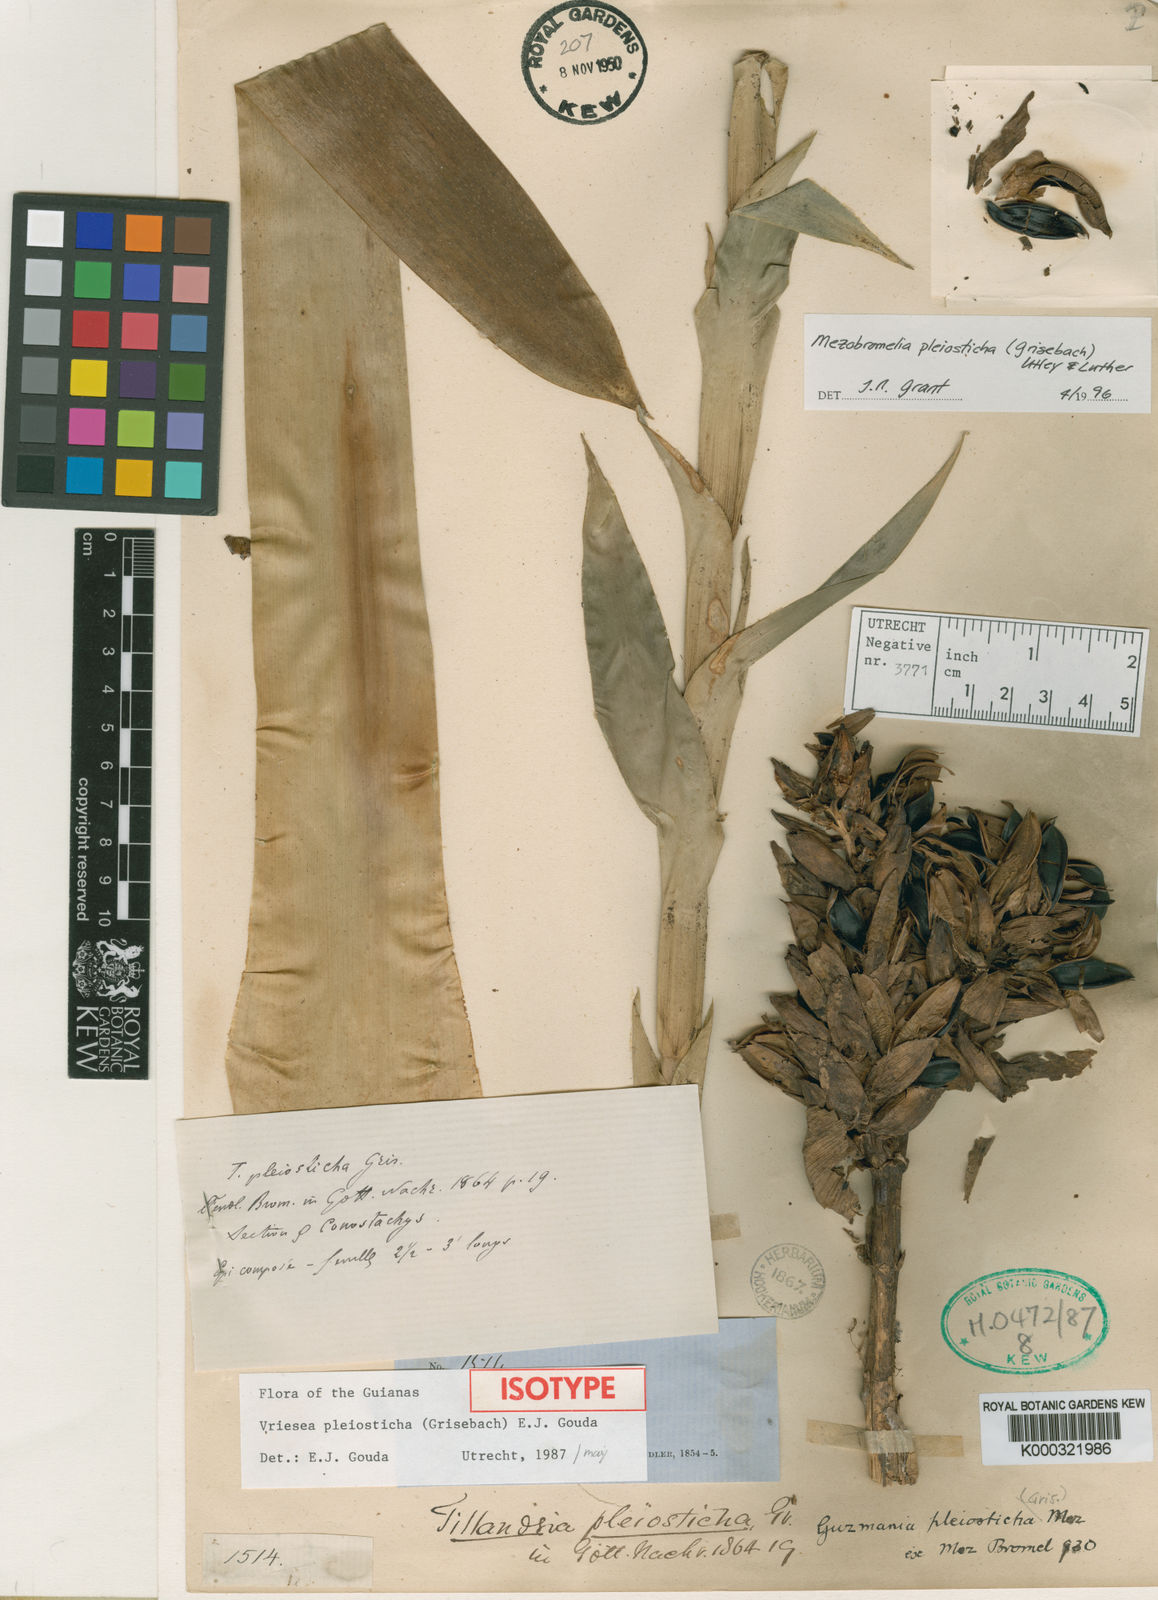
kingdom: Plantae
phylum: Tracheophyta
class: Liliopsida
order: Poales
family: Bromeliaceae
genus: Vriesea
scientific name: Vriesea pleiosticha
